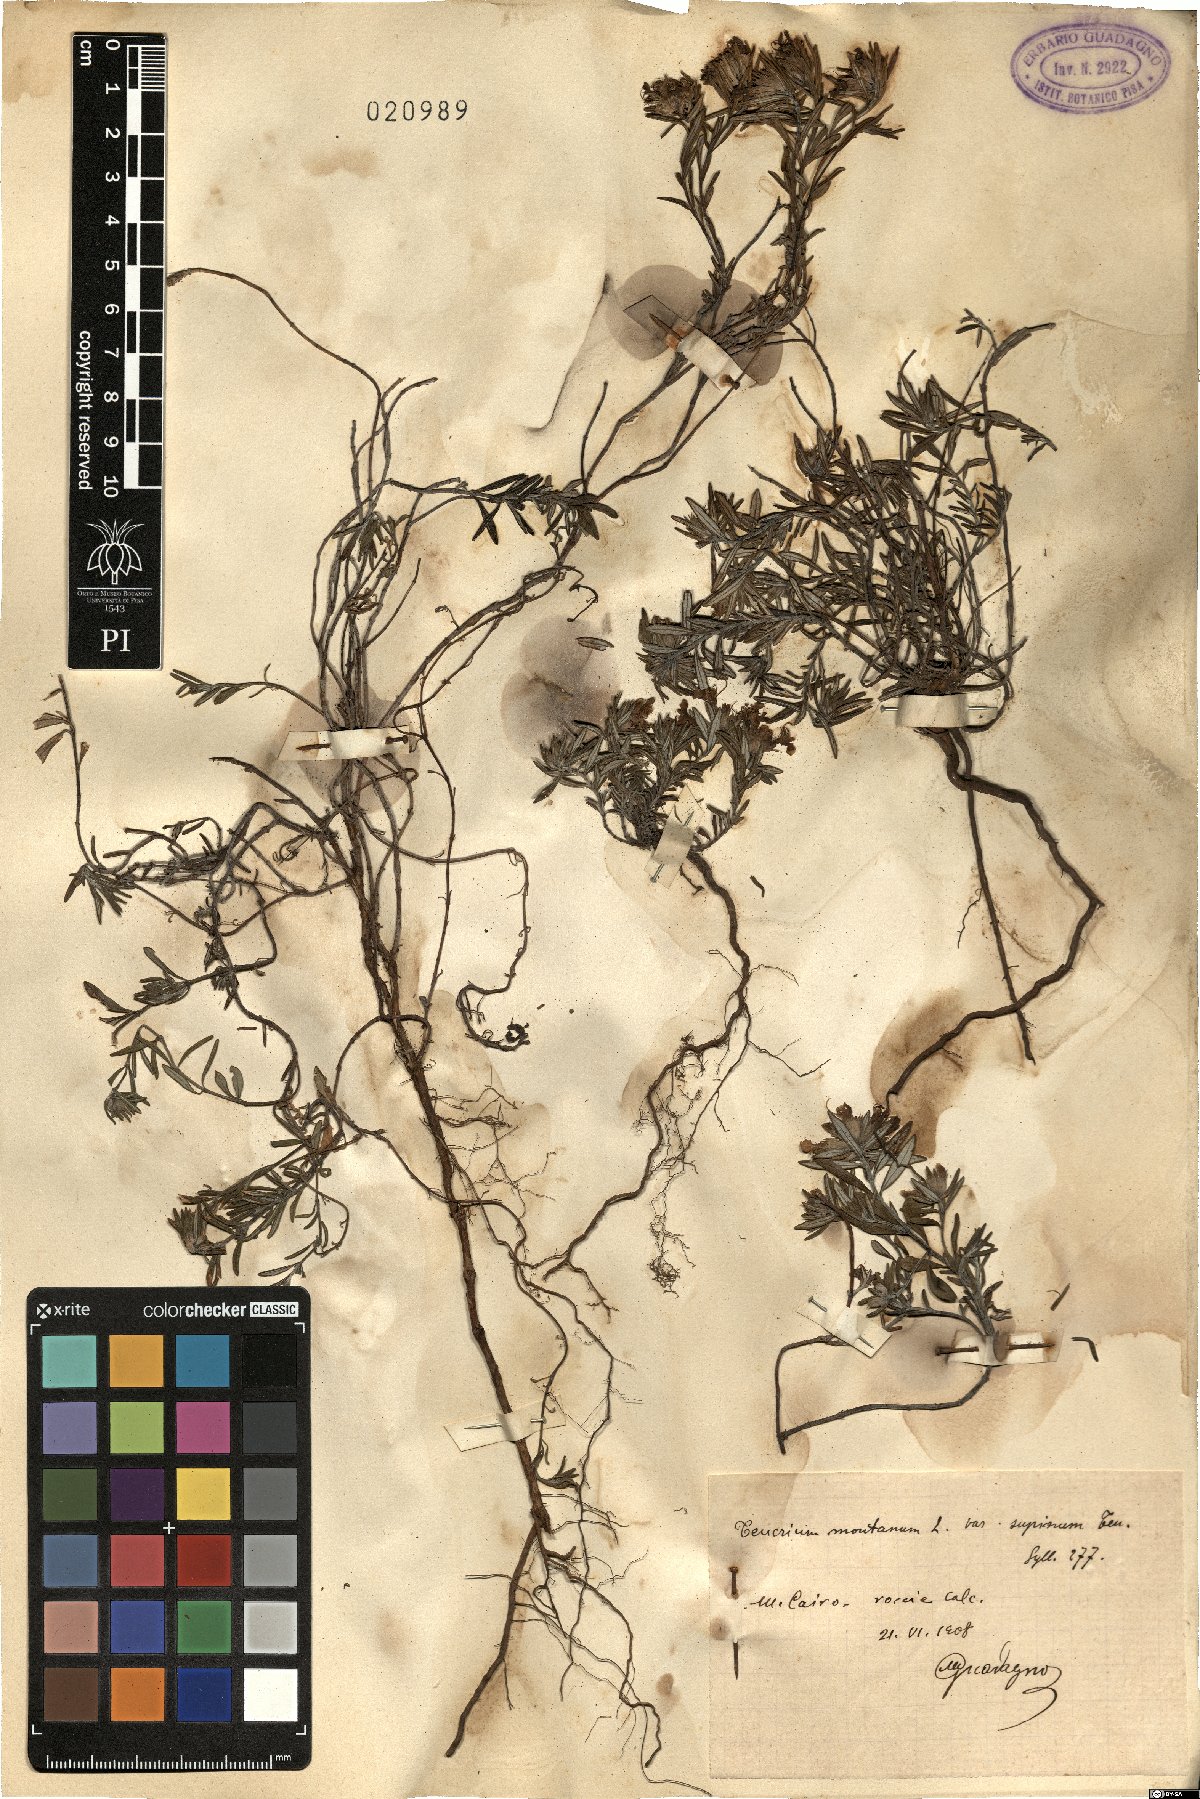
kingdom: Plantae
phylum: Tracheophyta
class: Magnoliopsida
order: Lamiales
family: Lamiaceae
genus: Teucrium
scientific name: Teucrium montanum
